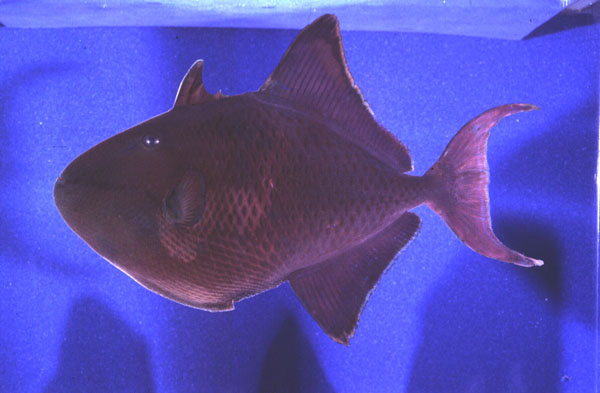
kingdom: Animalia
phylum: Chordata
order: Tetraodontiformes
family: Balistidae
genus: Odonus
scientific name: Odonus niger
